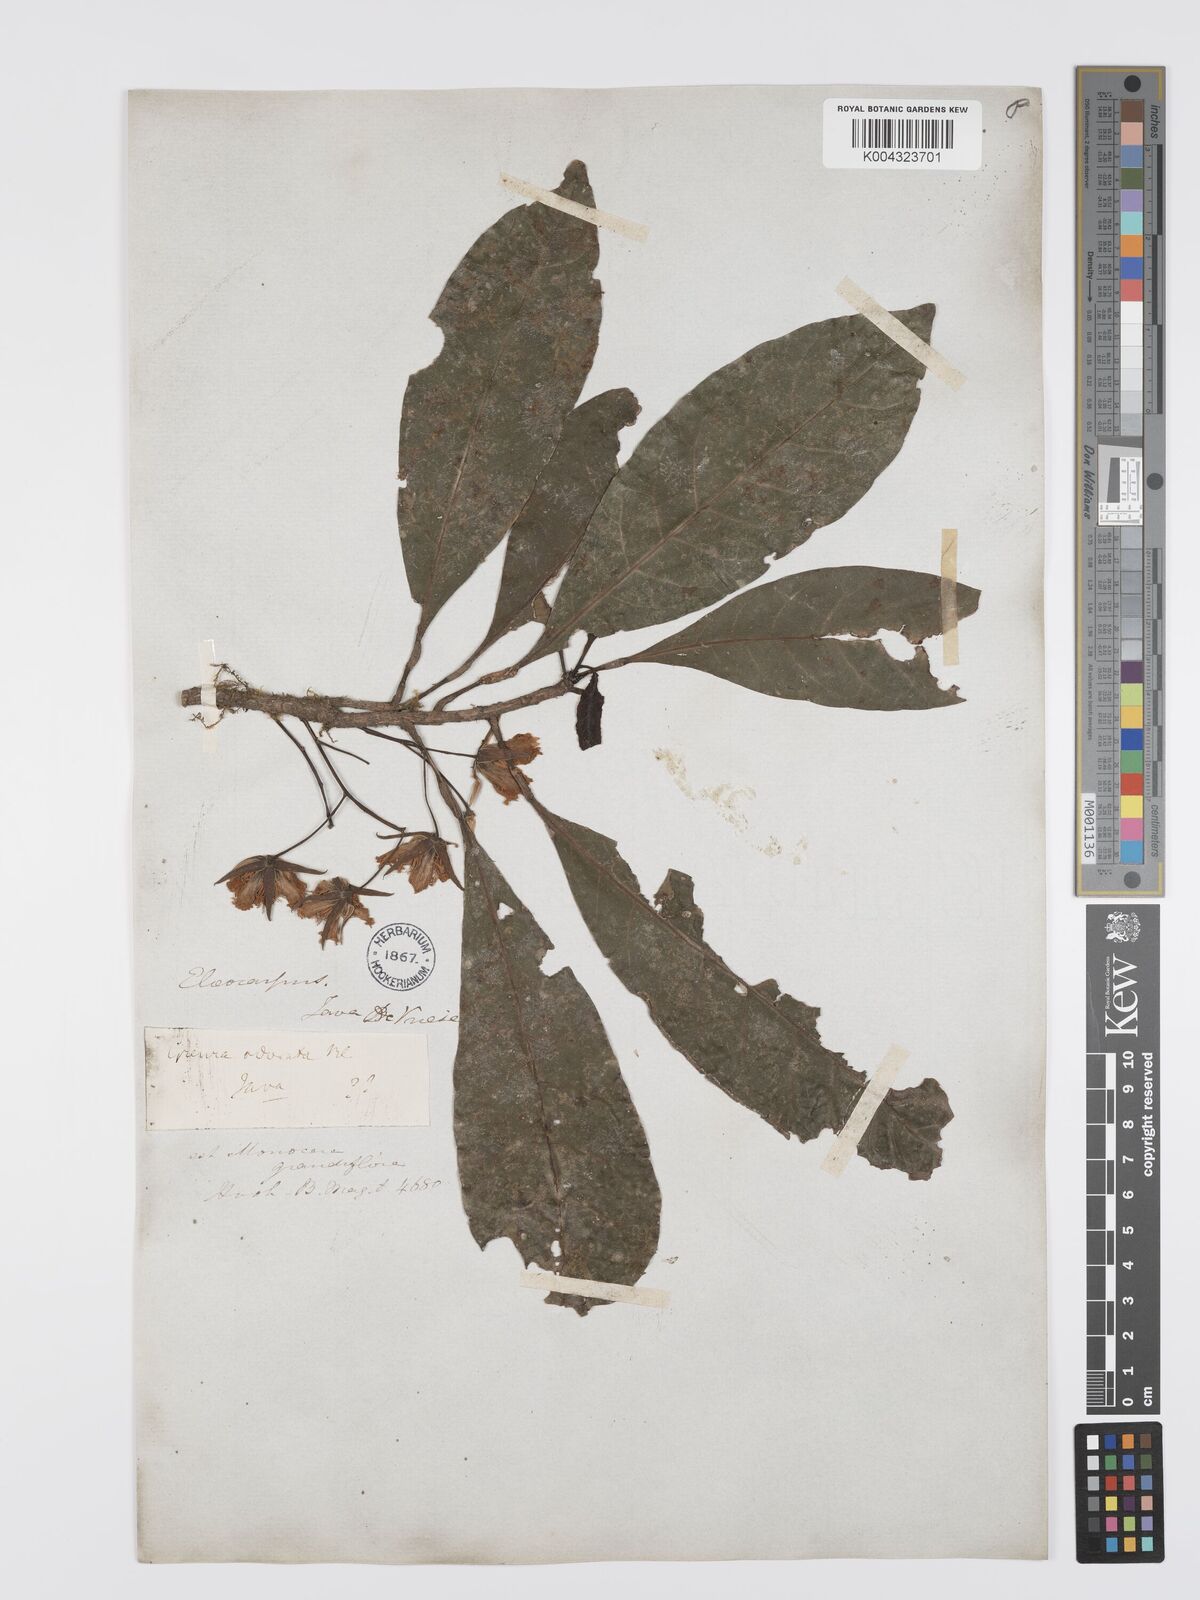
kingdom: Plantae
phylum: Tracheophyta
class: Magnoliopsida
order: Oxalidales
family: Elaeocarpaceae
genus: Elaeocarpus
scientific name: Elaeocarpus grandiflorus
